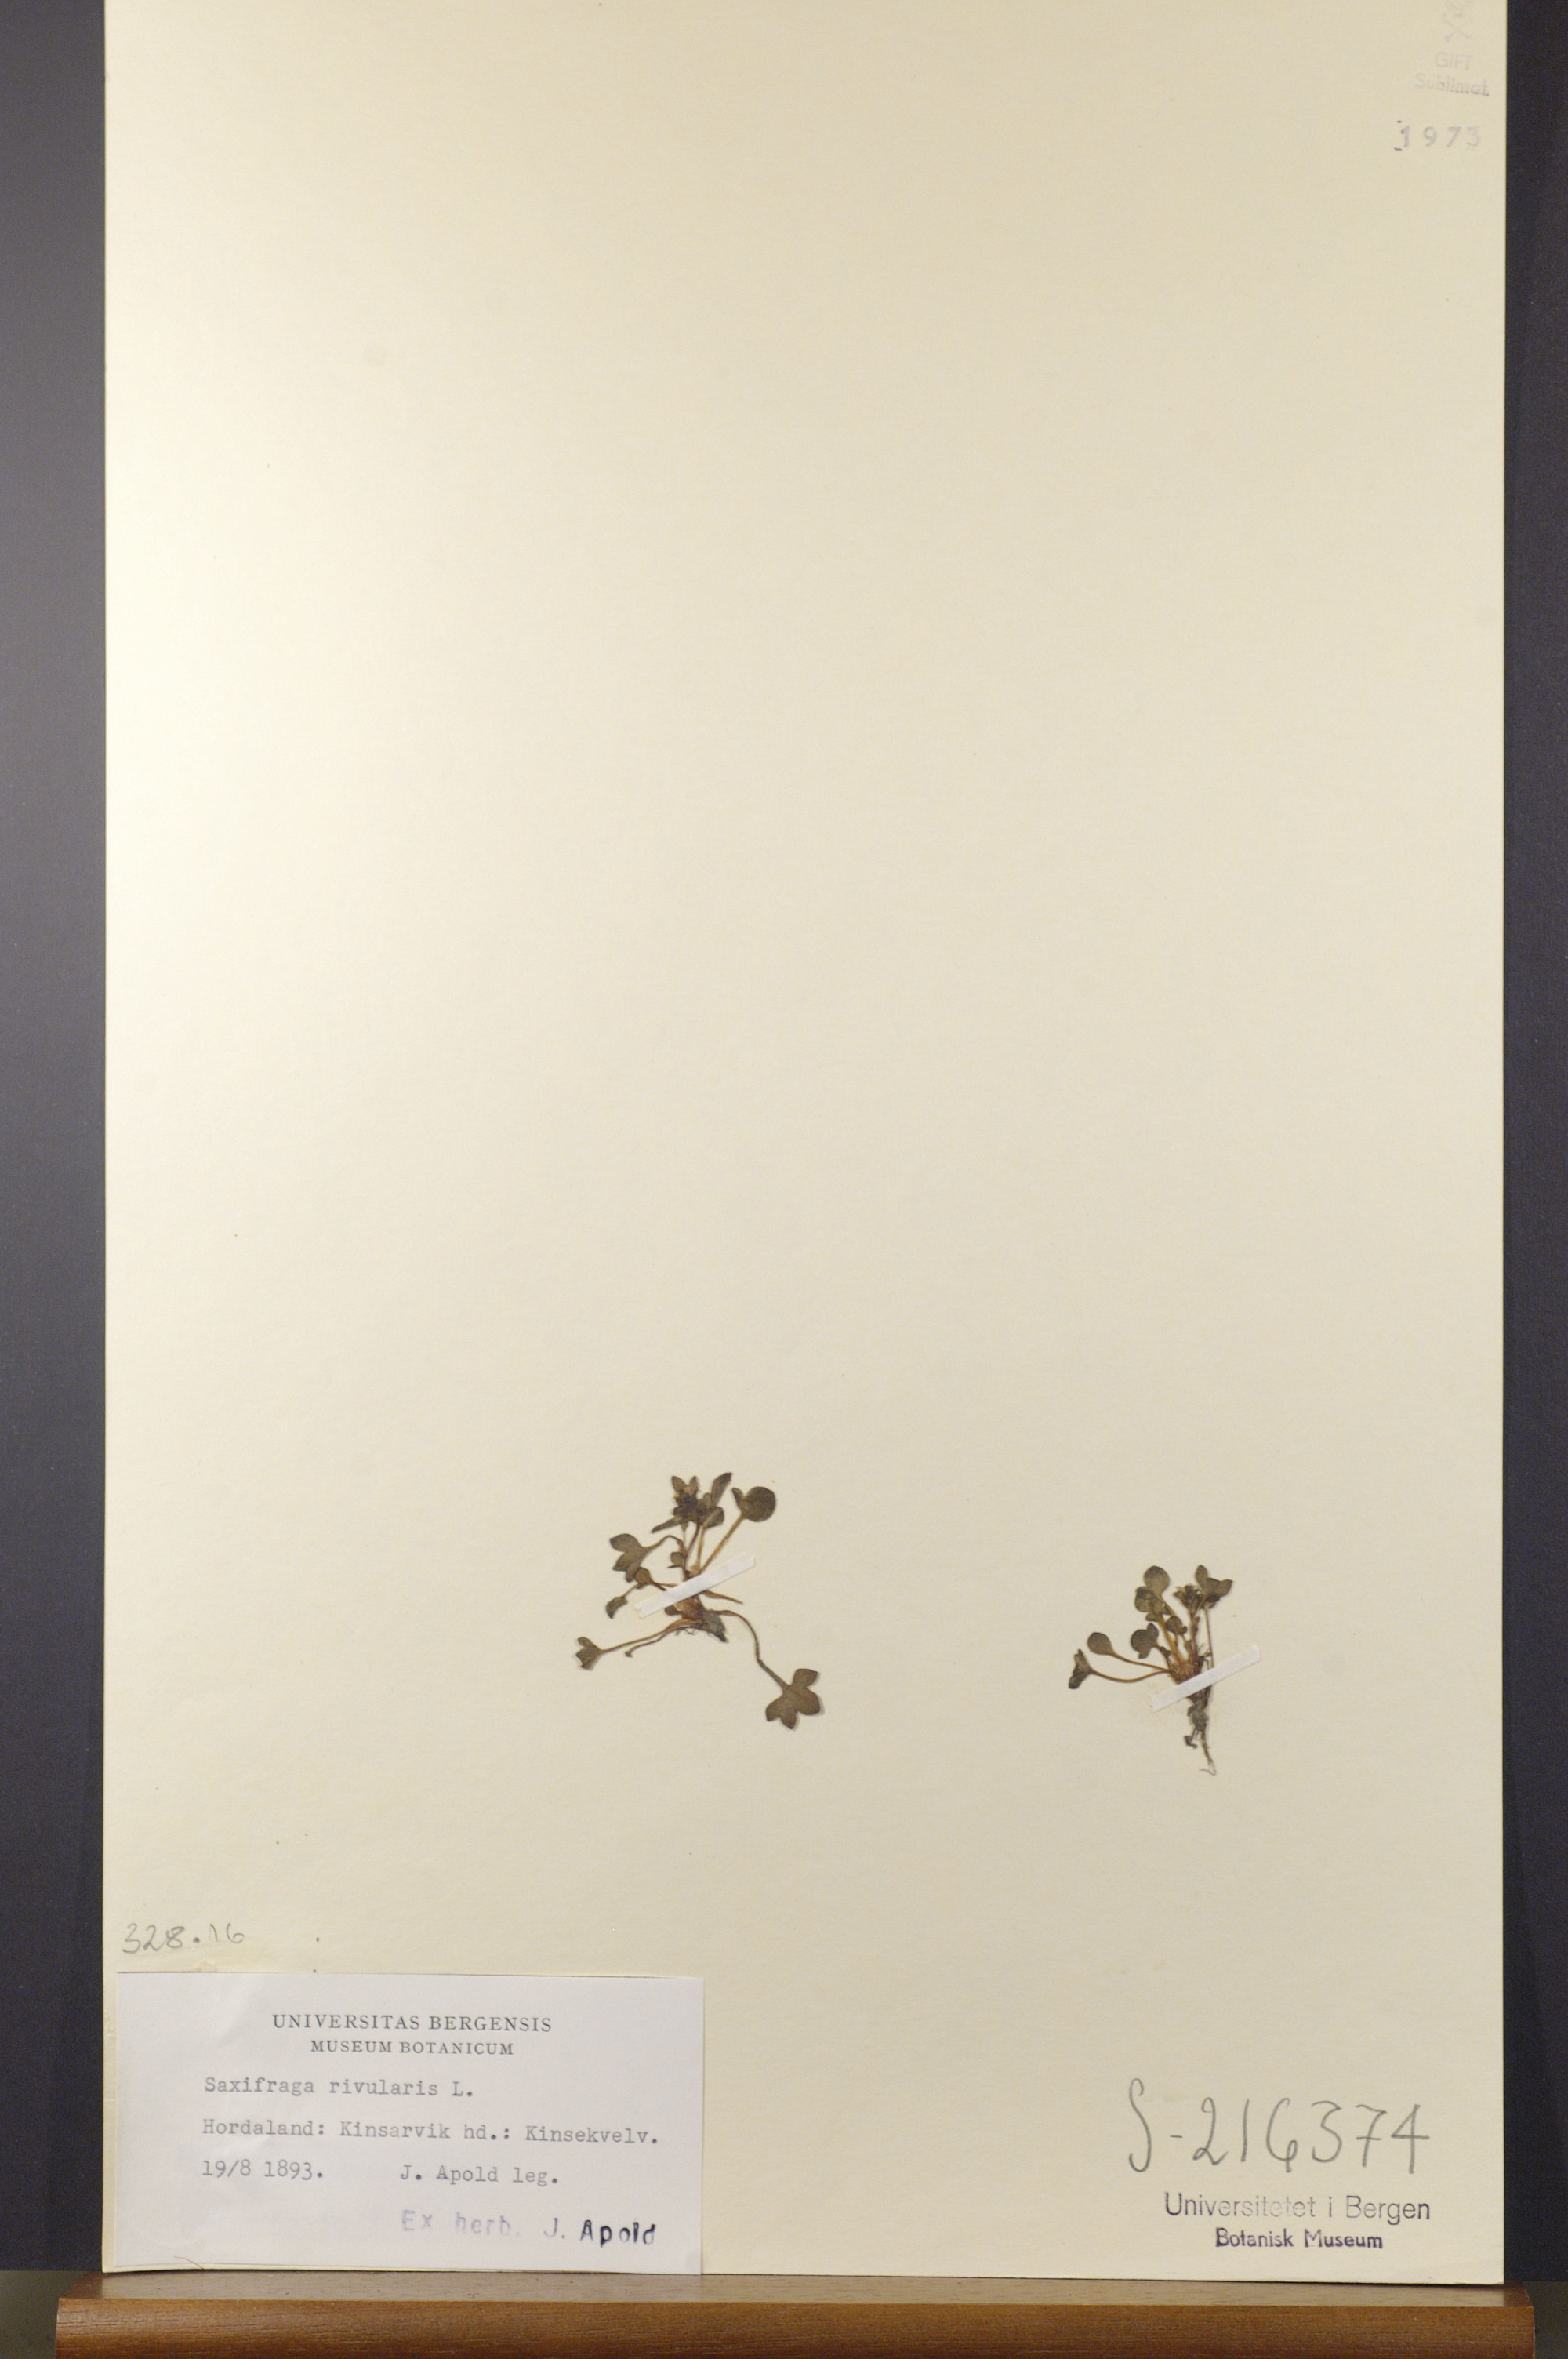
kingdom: Plantae
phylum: Tracheophyta
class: Magnoliopsida
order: Saxifragales
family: Saxifragaceae
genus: Saxifraga
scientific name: Saxifraga rivularis
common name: Highland saxifrage
